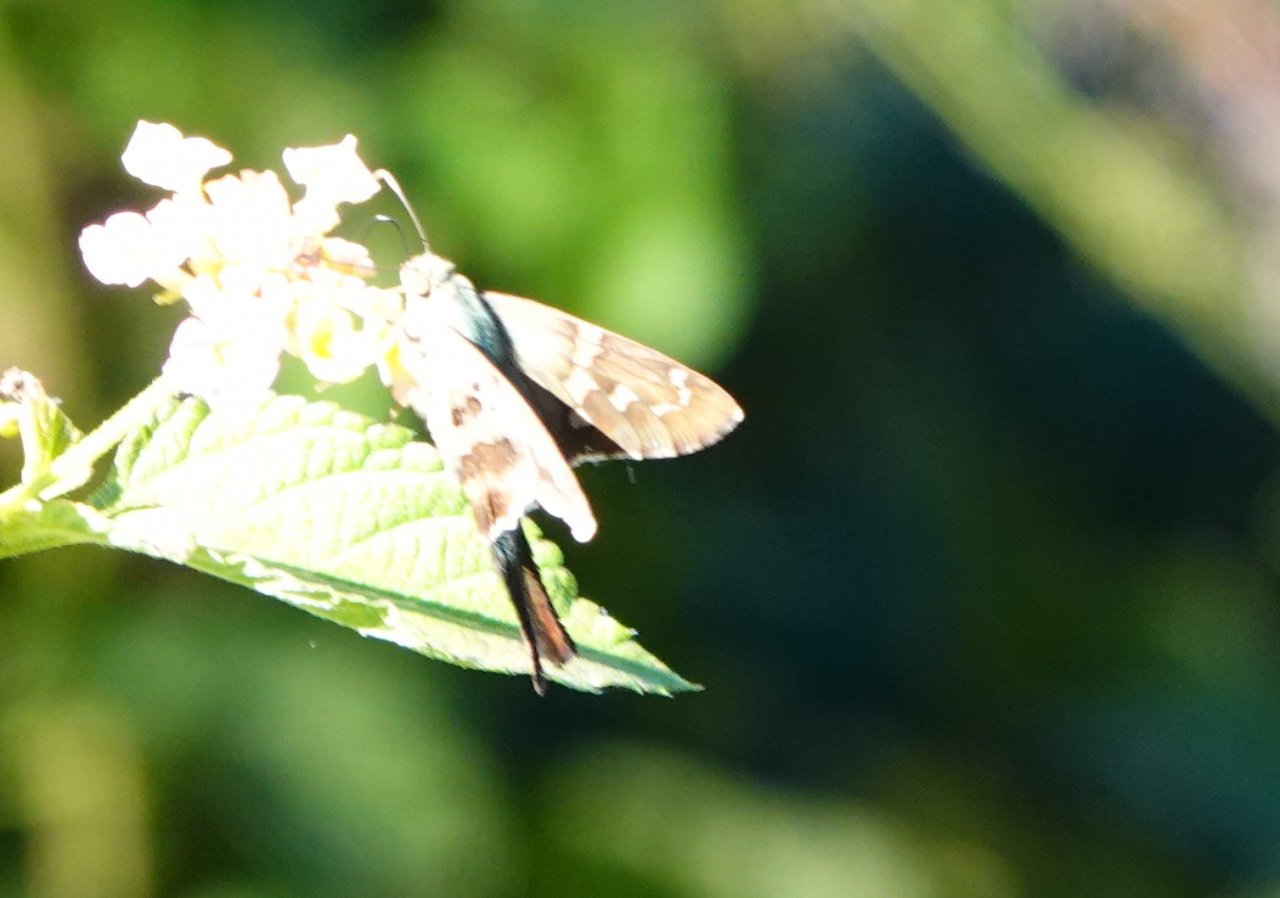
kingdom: Animalia
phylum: Arthropoda
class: Insecta
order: Lepidoptera
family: Hesperiidae
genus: Urbanus
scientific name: Urbanus proteus
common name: Long-tailed Skipper
